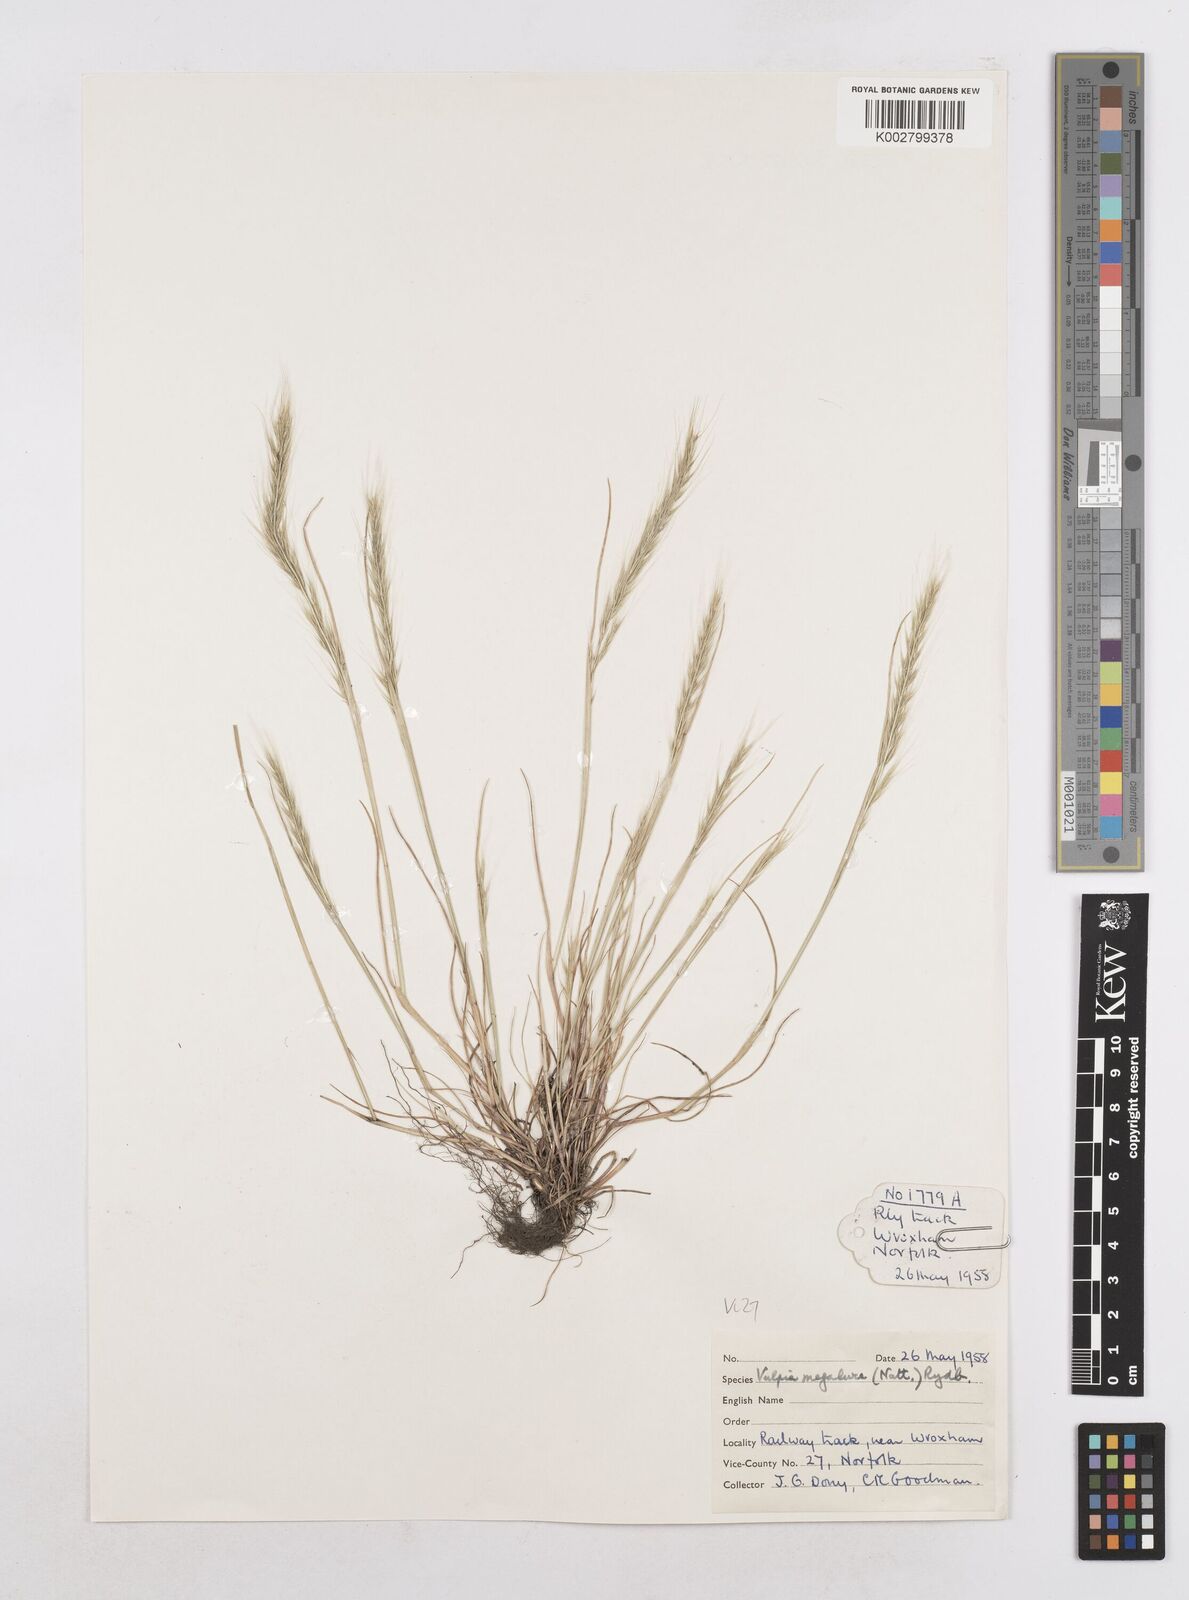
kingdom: Plantae
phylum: Tracheophyta
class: Liliopsida
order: Poales
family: Poaceae
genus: Festuca
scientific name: Festuca myuros
